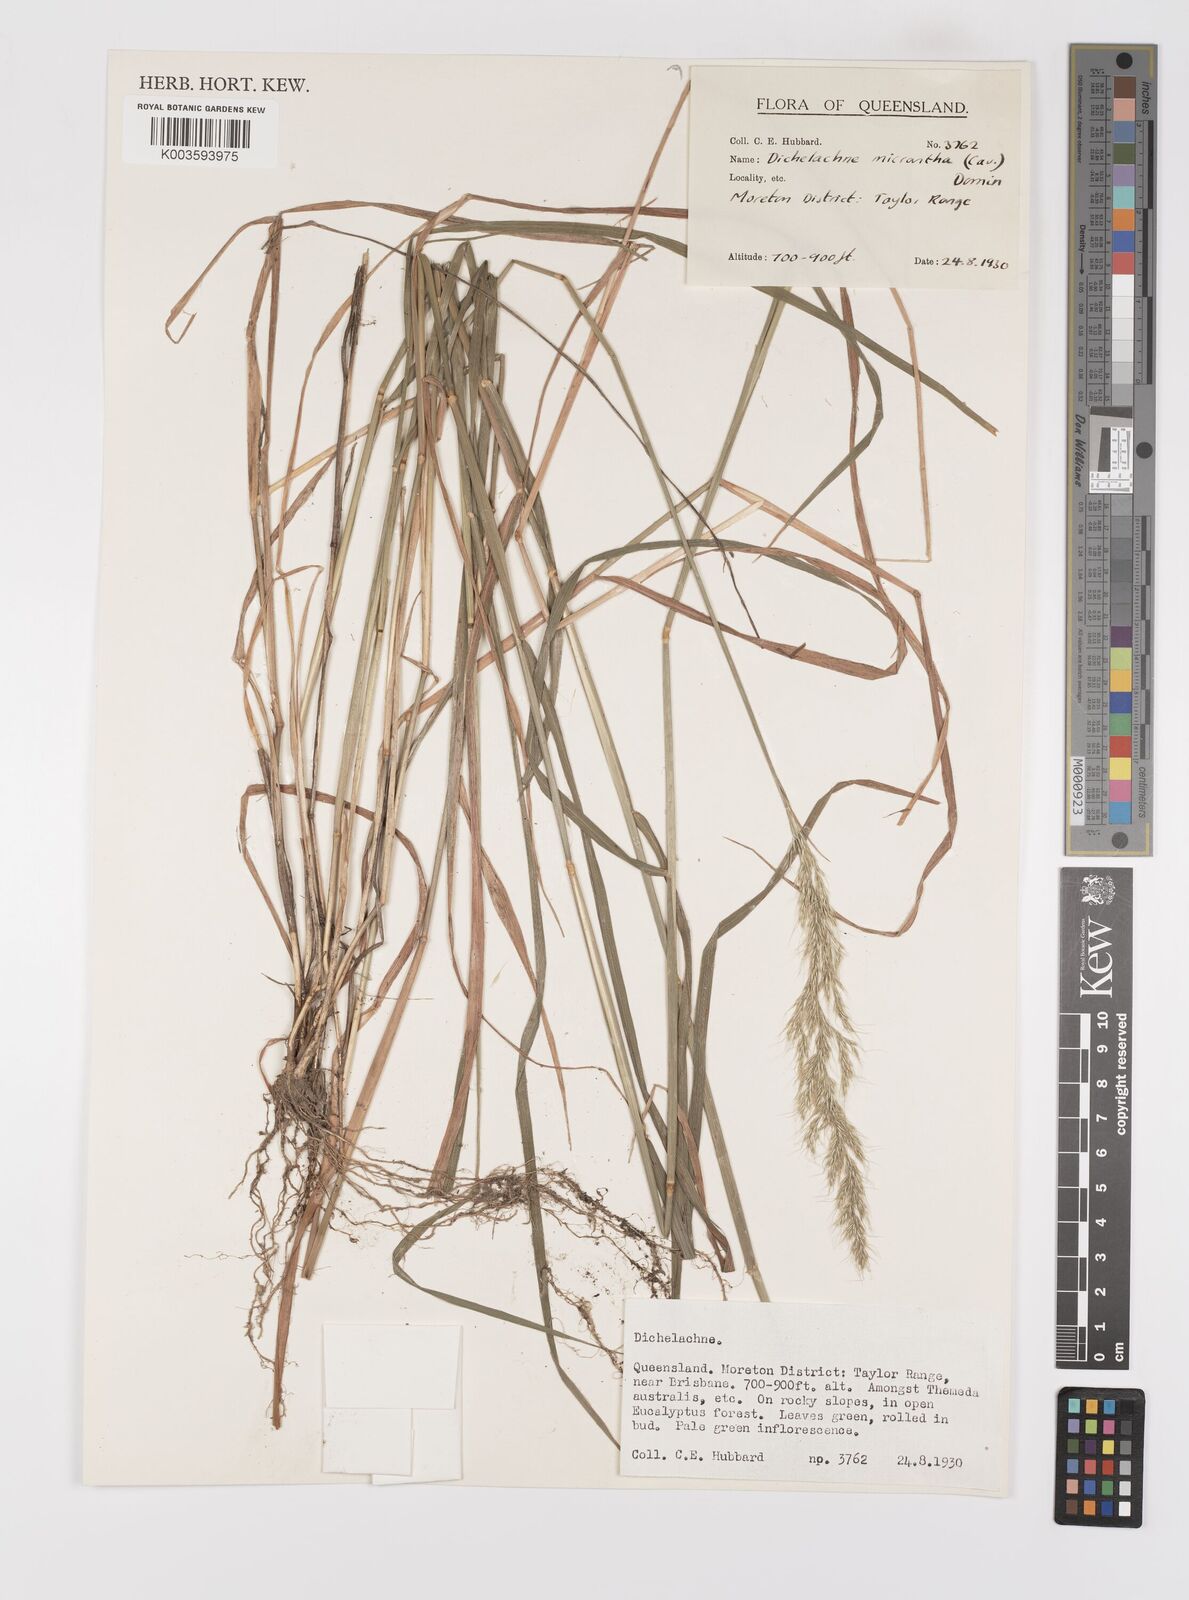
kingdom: Plantae
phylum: Tracheophyta
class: Liliopsida
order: Poales
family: Poaceae
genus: Dichelachne
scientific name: Dichelachne micrantha
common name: Plumegrass
